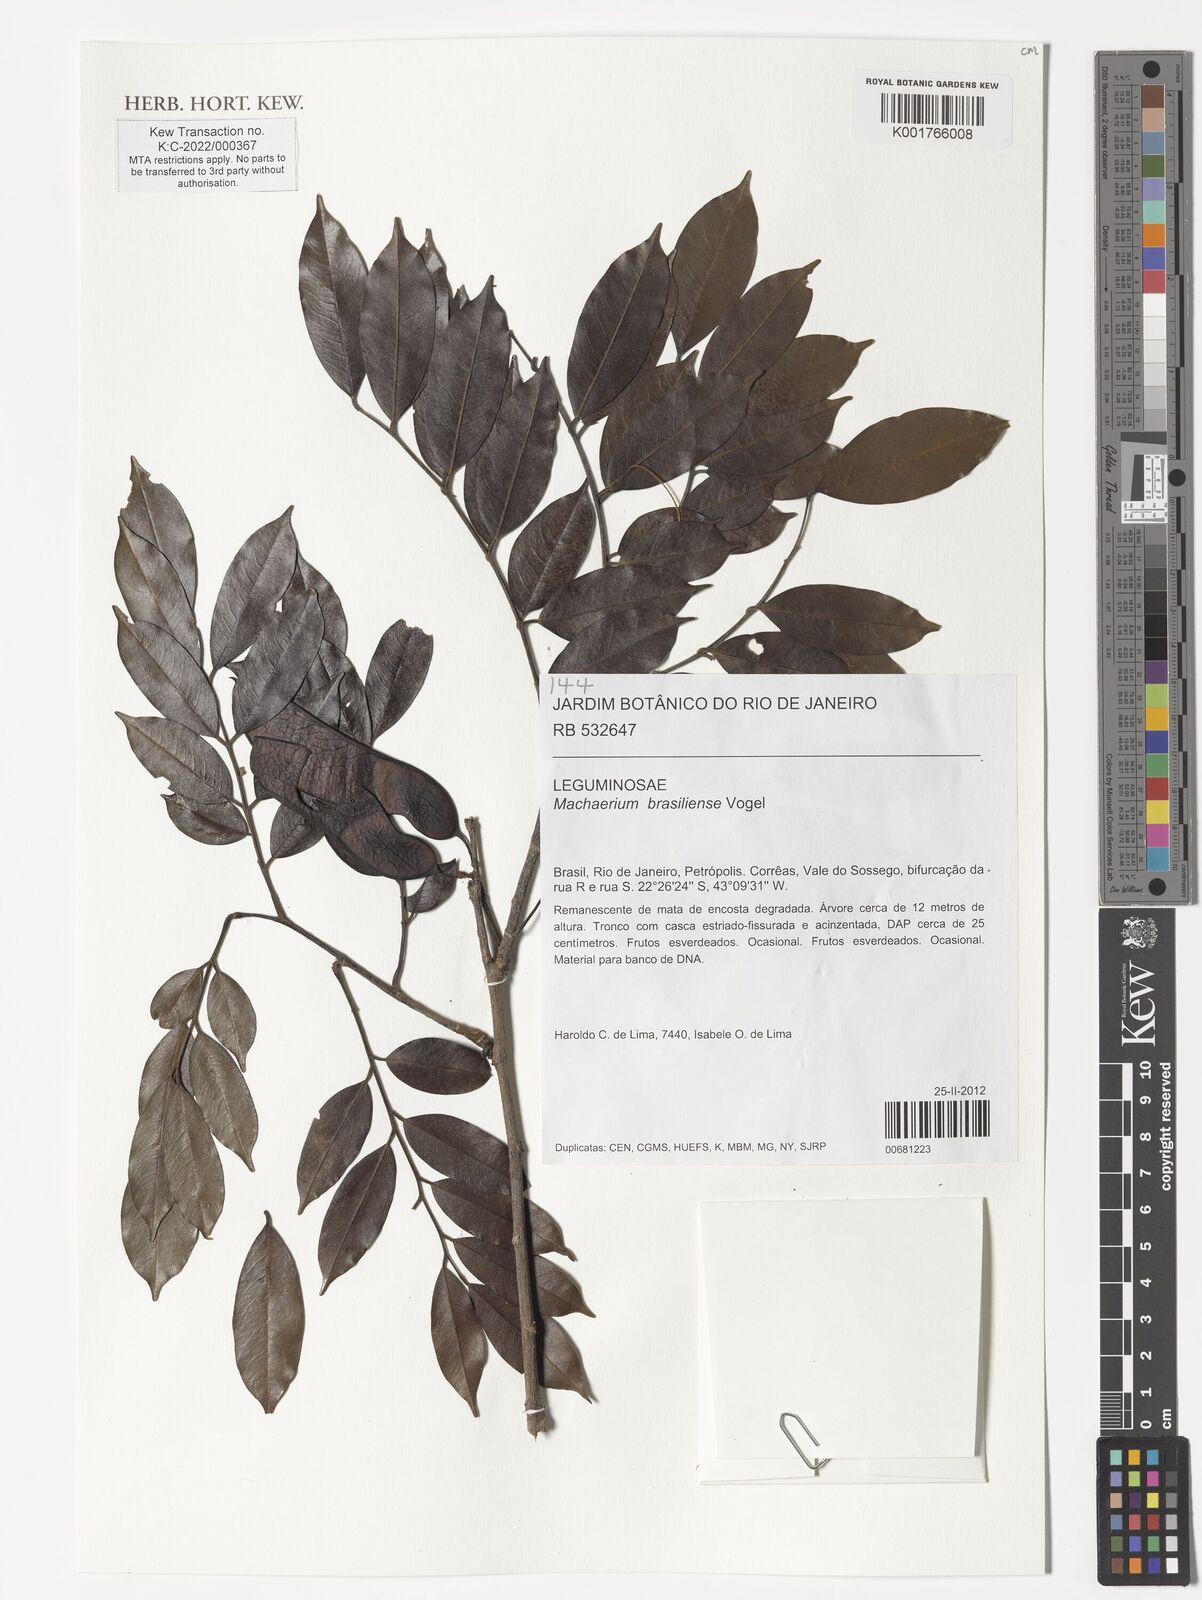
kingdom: Plantae
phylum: Tracheophyta
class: Magnoliopsida
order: Fabales
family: Fabaceae
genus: Machaerium
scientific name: Machaerium brasiliense
